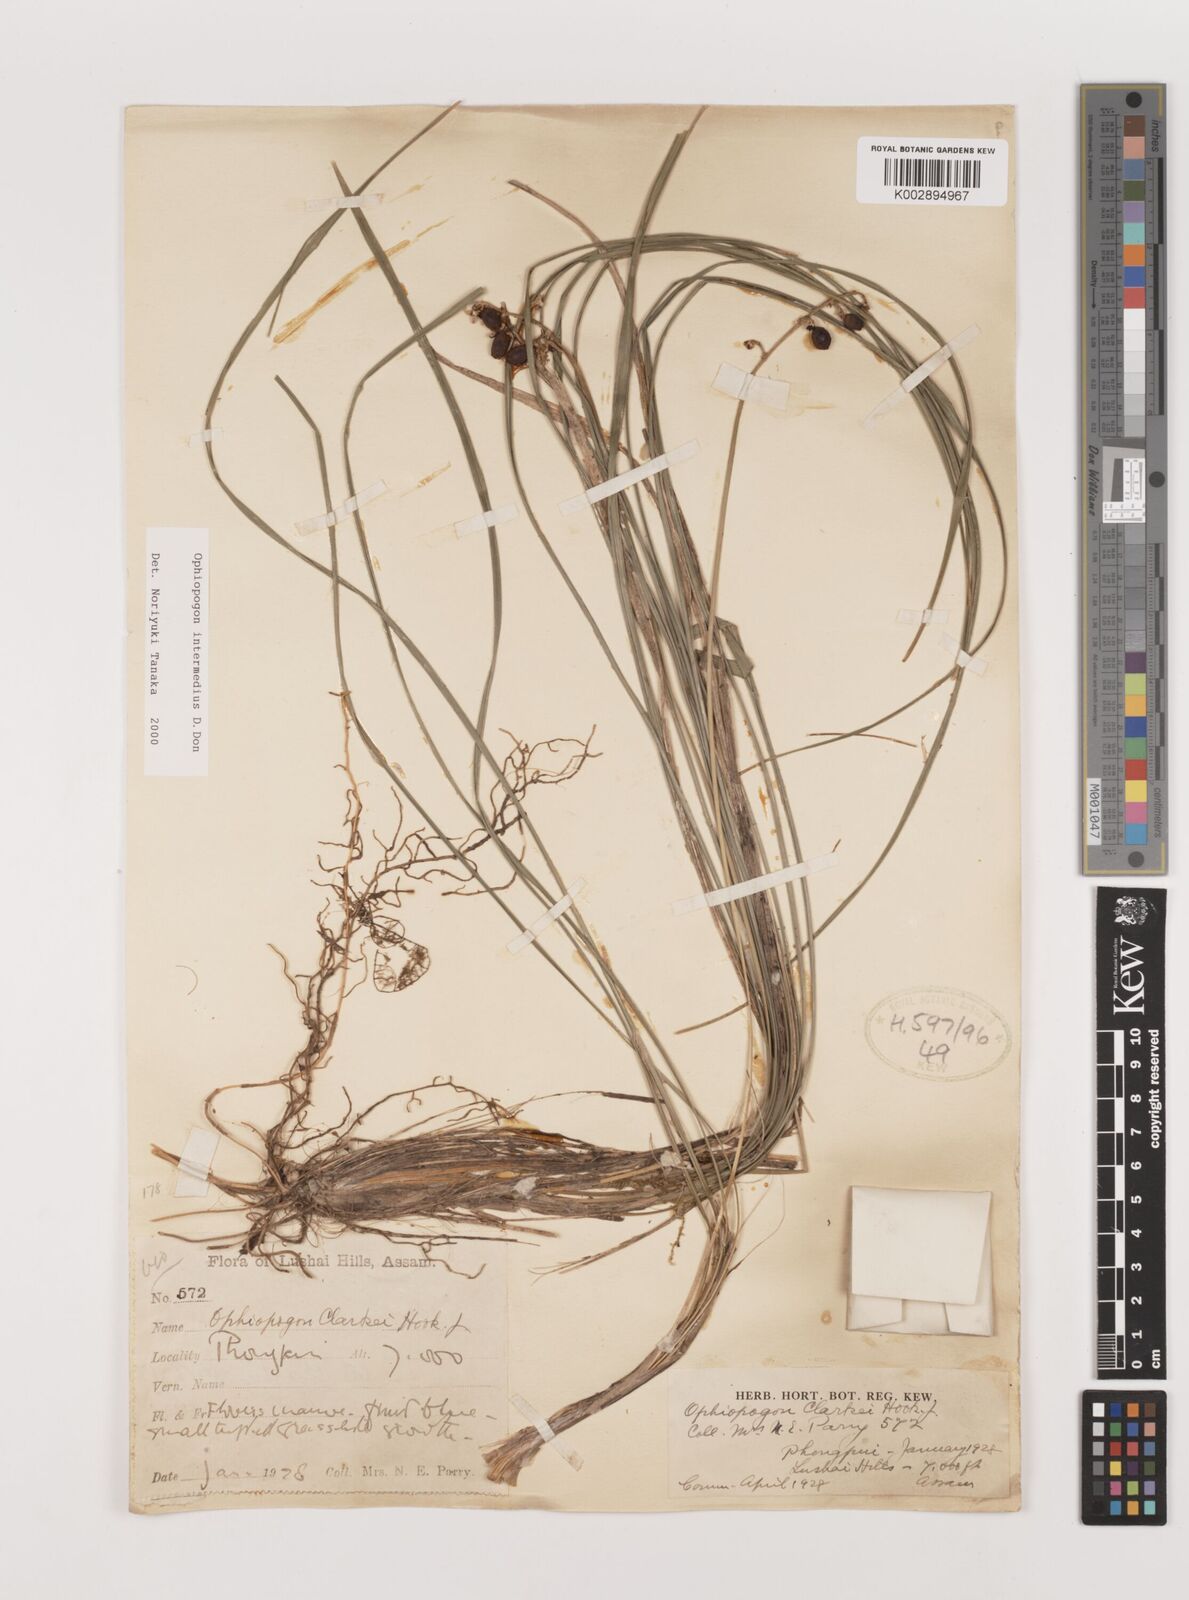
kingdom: Plantae
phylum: Tracheophyta
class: Liliopsida
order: Asparagales
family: Asparagaceae
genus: Ophiopogon
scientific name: Ophiopogon intermedius
